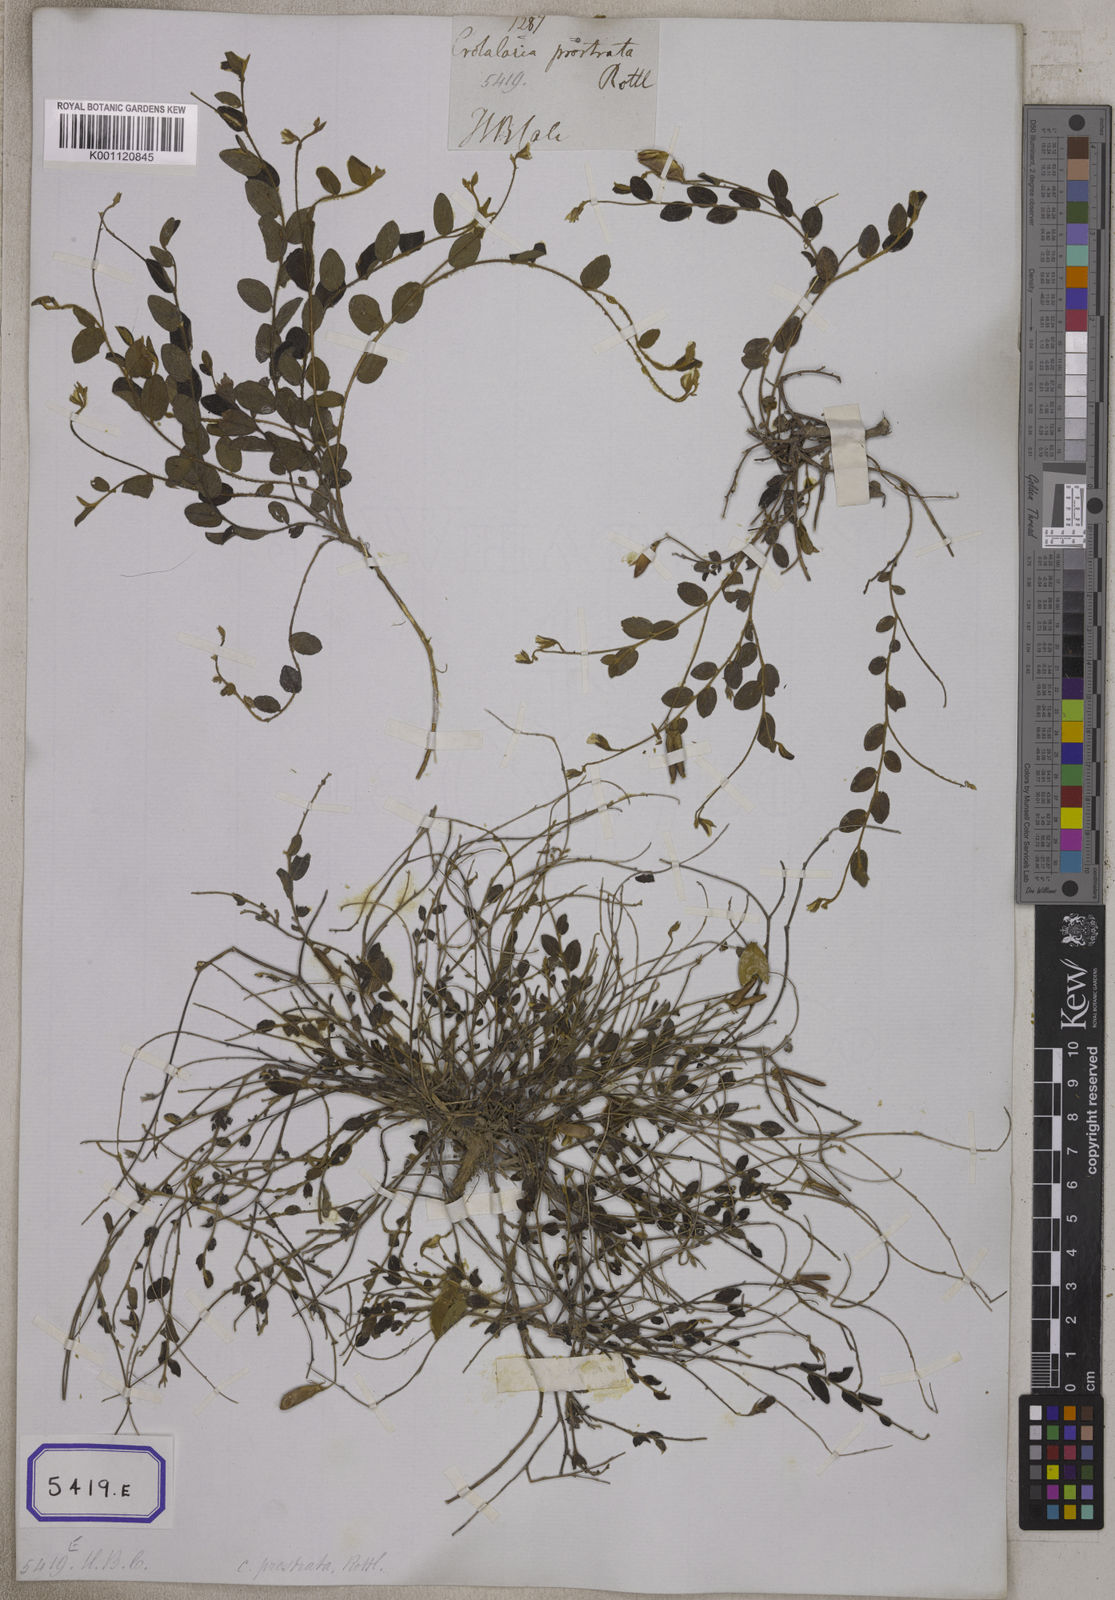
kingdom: Plantae
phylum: Tracheophyta
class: Magnoliopsida
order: Fabales
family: Fabaceae
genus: Crotalaria
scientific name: Crotalaria
